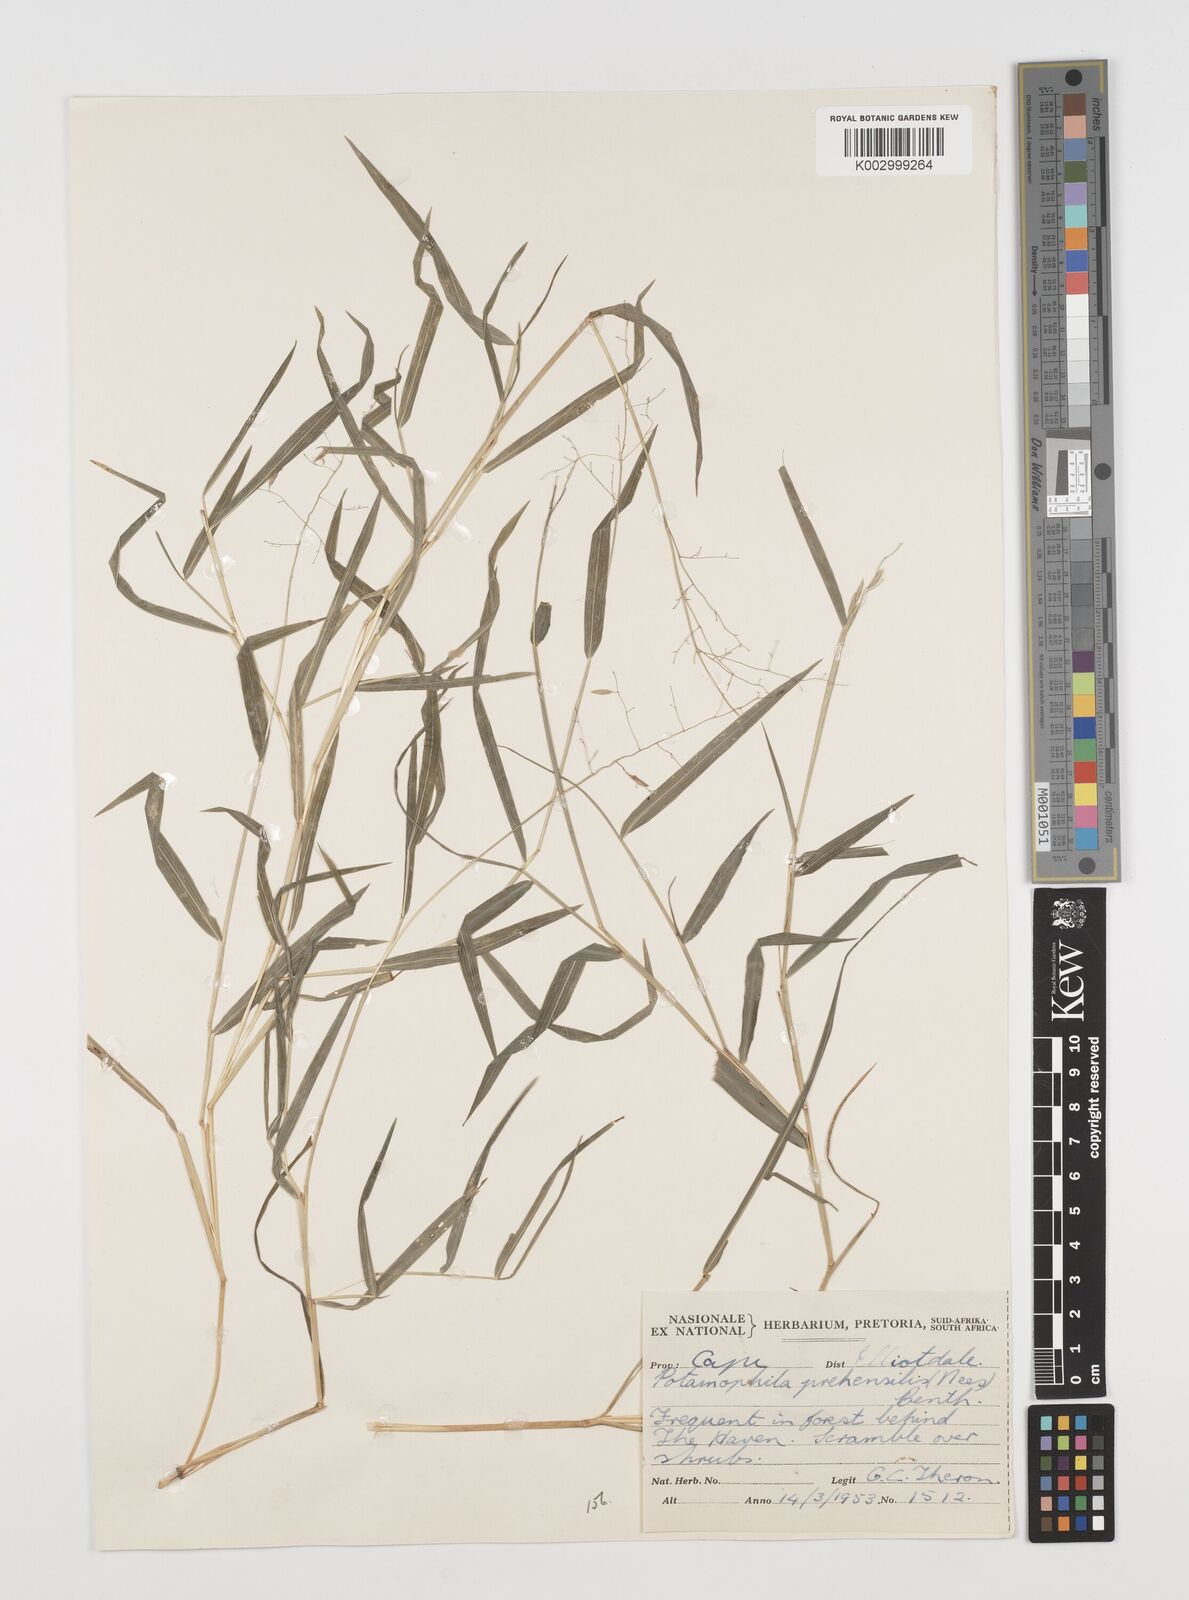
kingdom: Plantae
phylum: Tracheophyta
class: Liliopsida
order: Poales
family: Poaceae
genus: Prosphytochloa
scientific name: Prosphytochloa prehensilis
